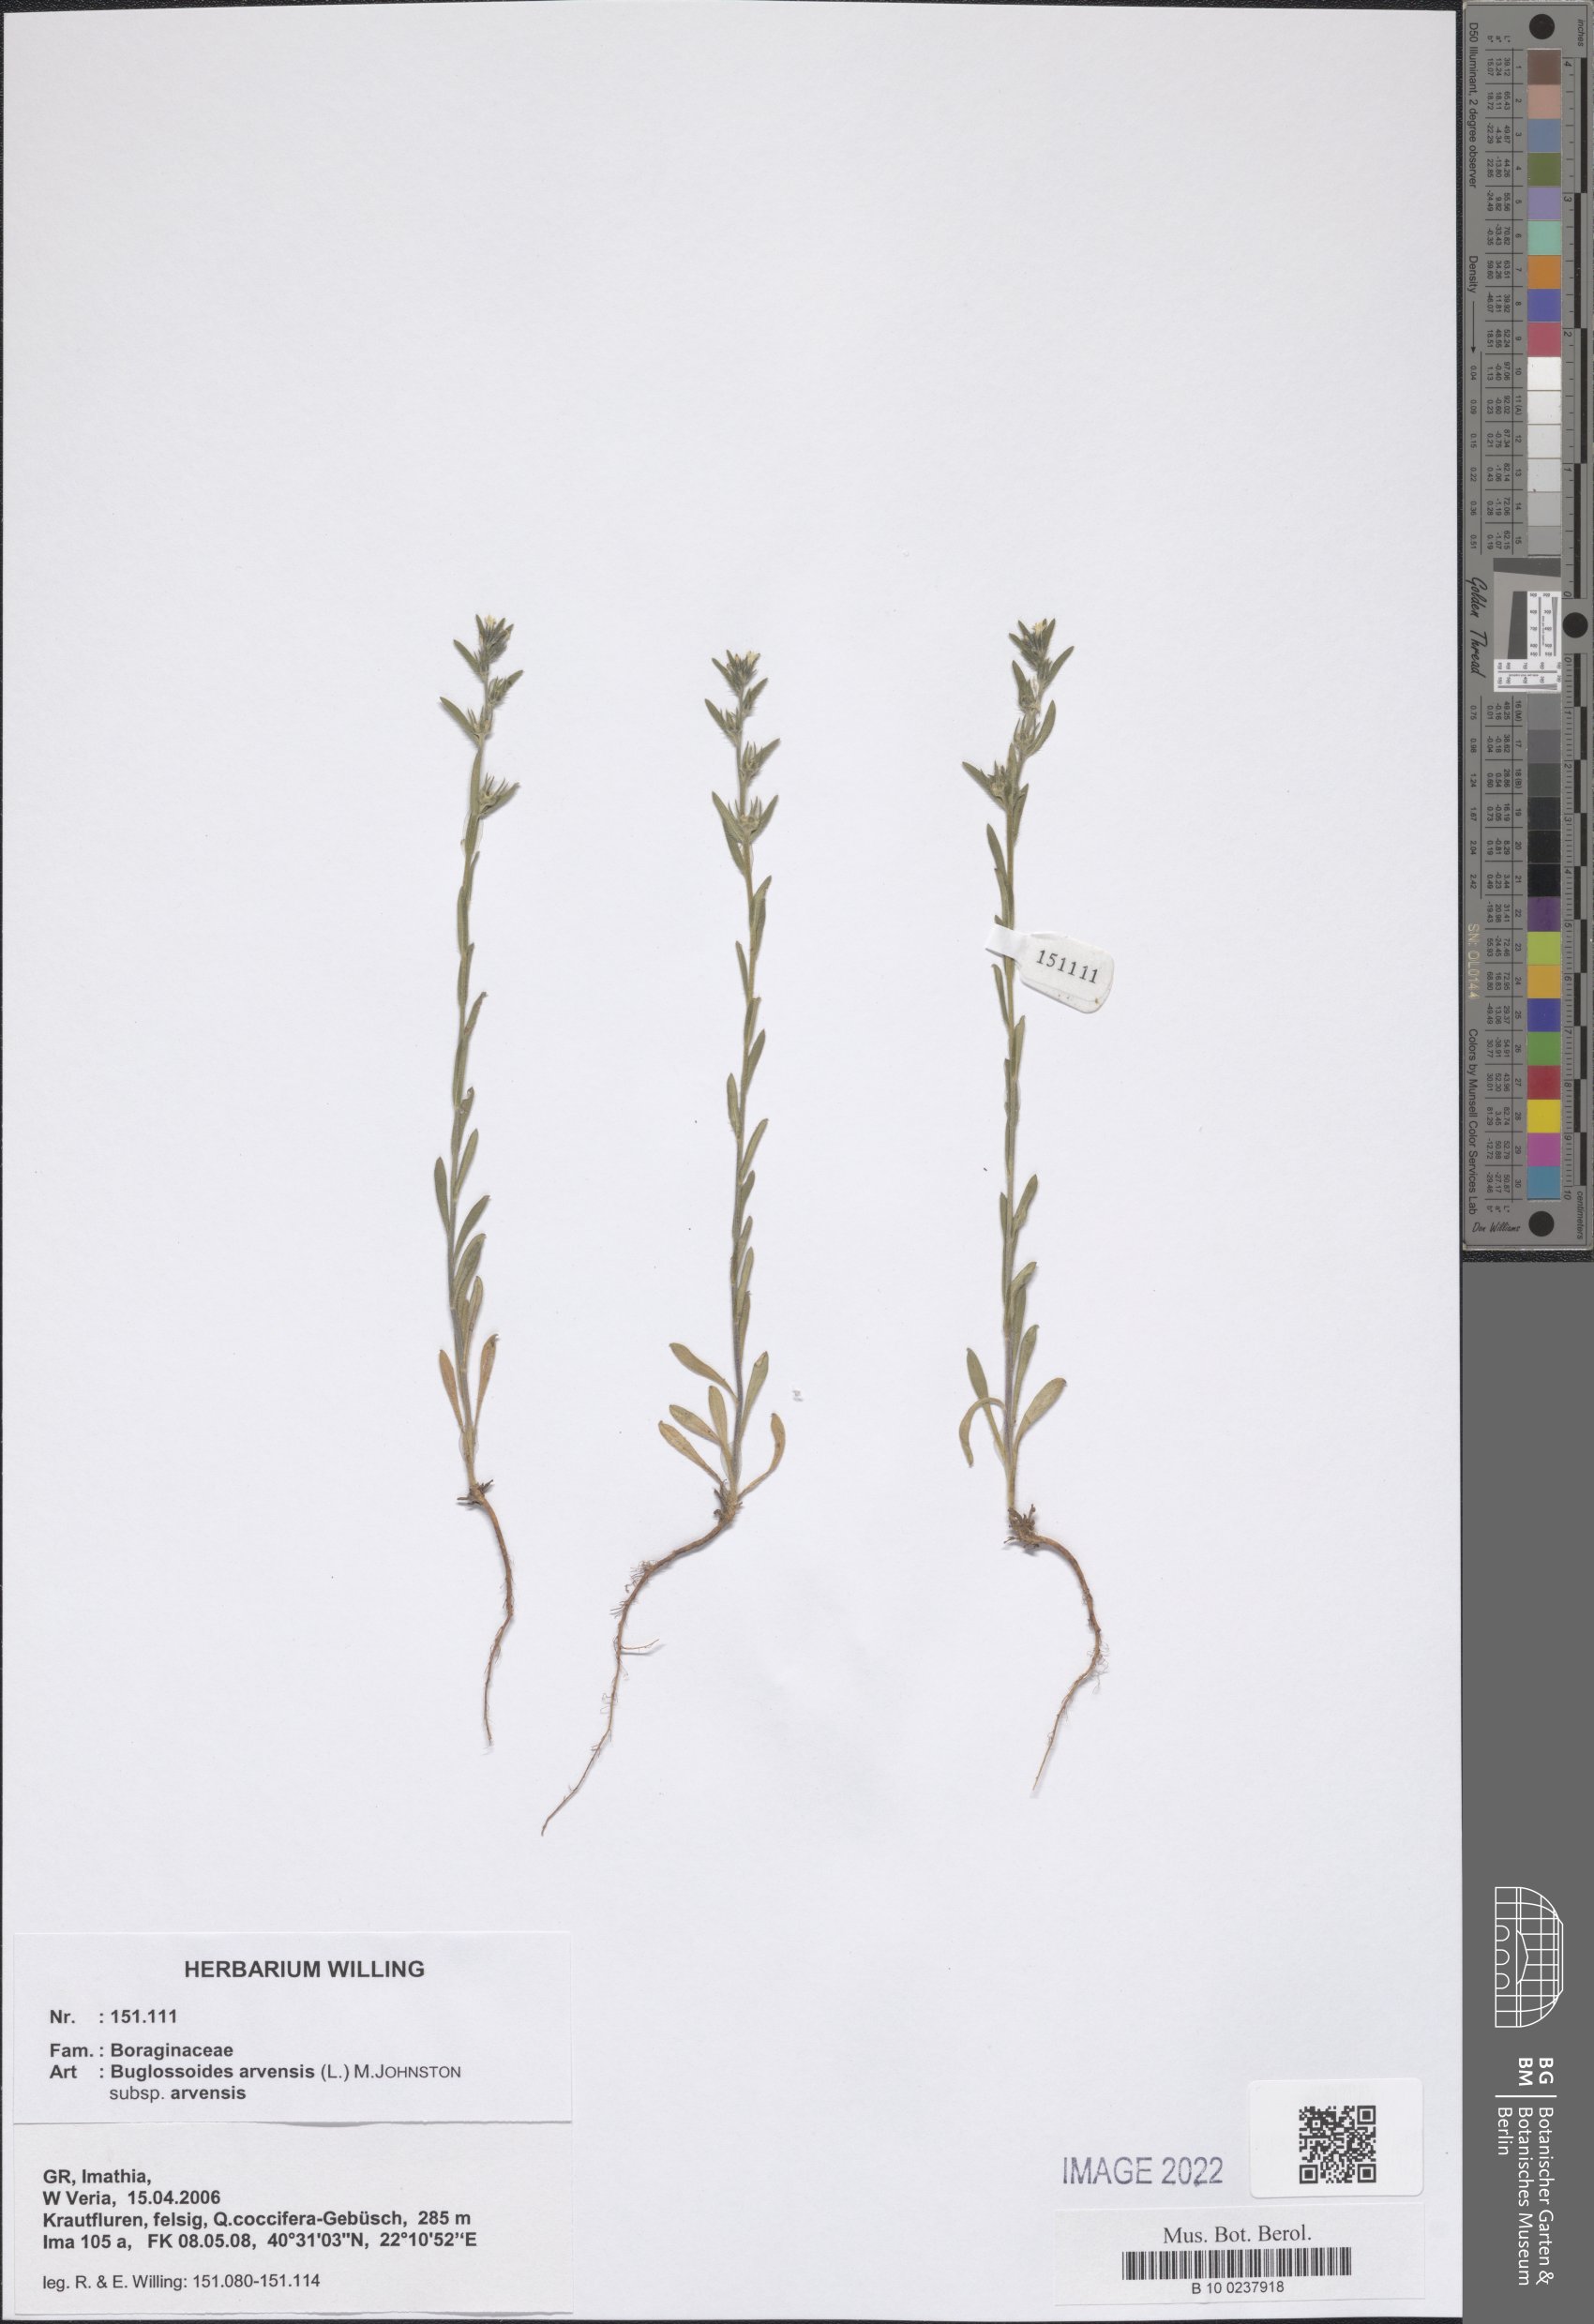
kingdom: Plantae
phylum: Tracheophyta
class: Magnoliopsida
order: Boraginales
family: Boraginaceae
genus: Buglossoides
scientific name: Buglossoides arvensis
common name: Corn gromwell
